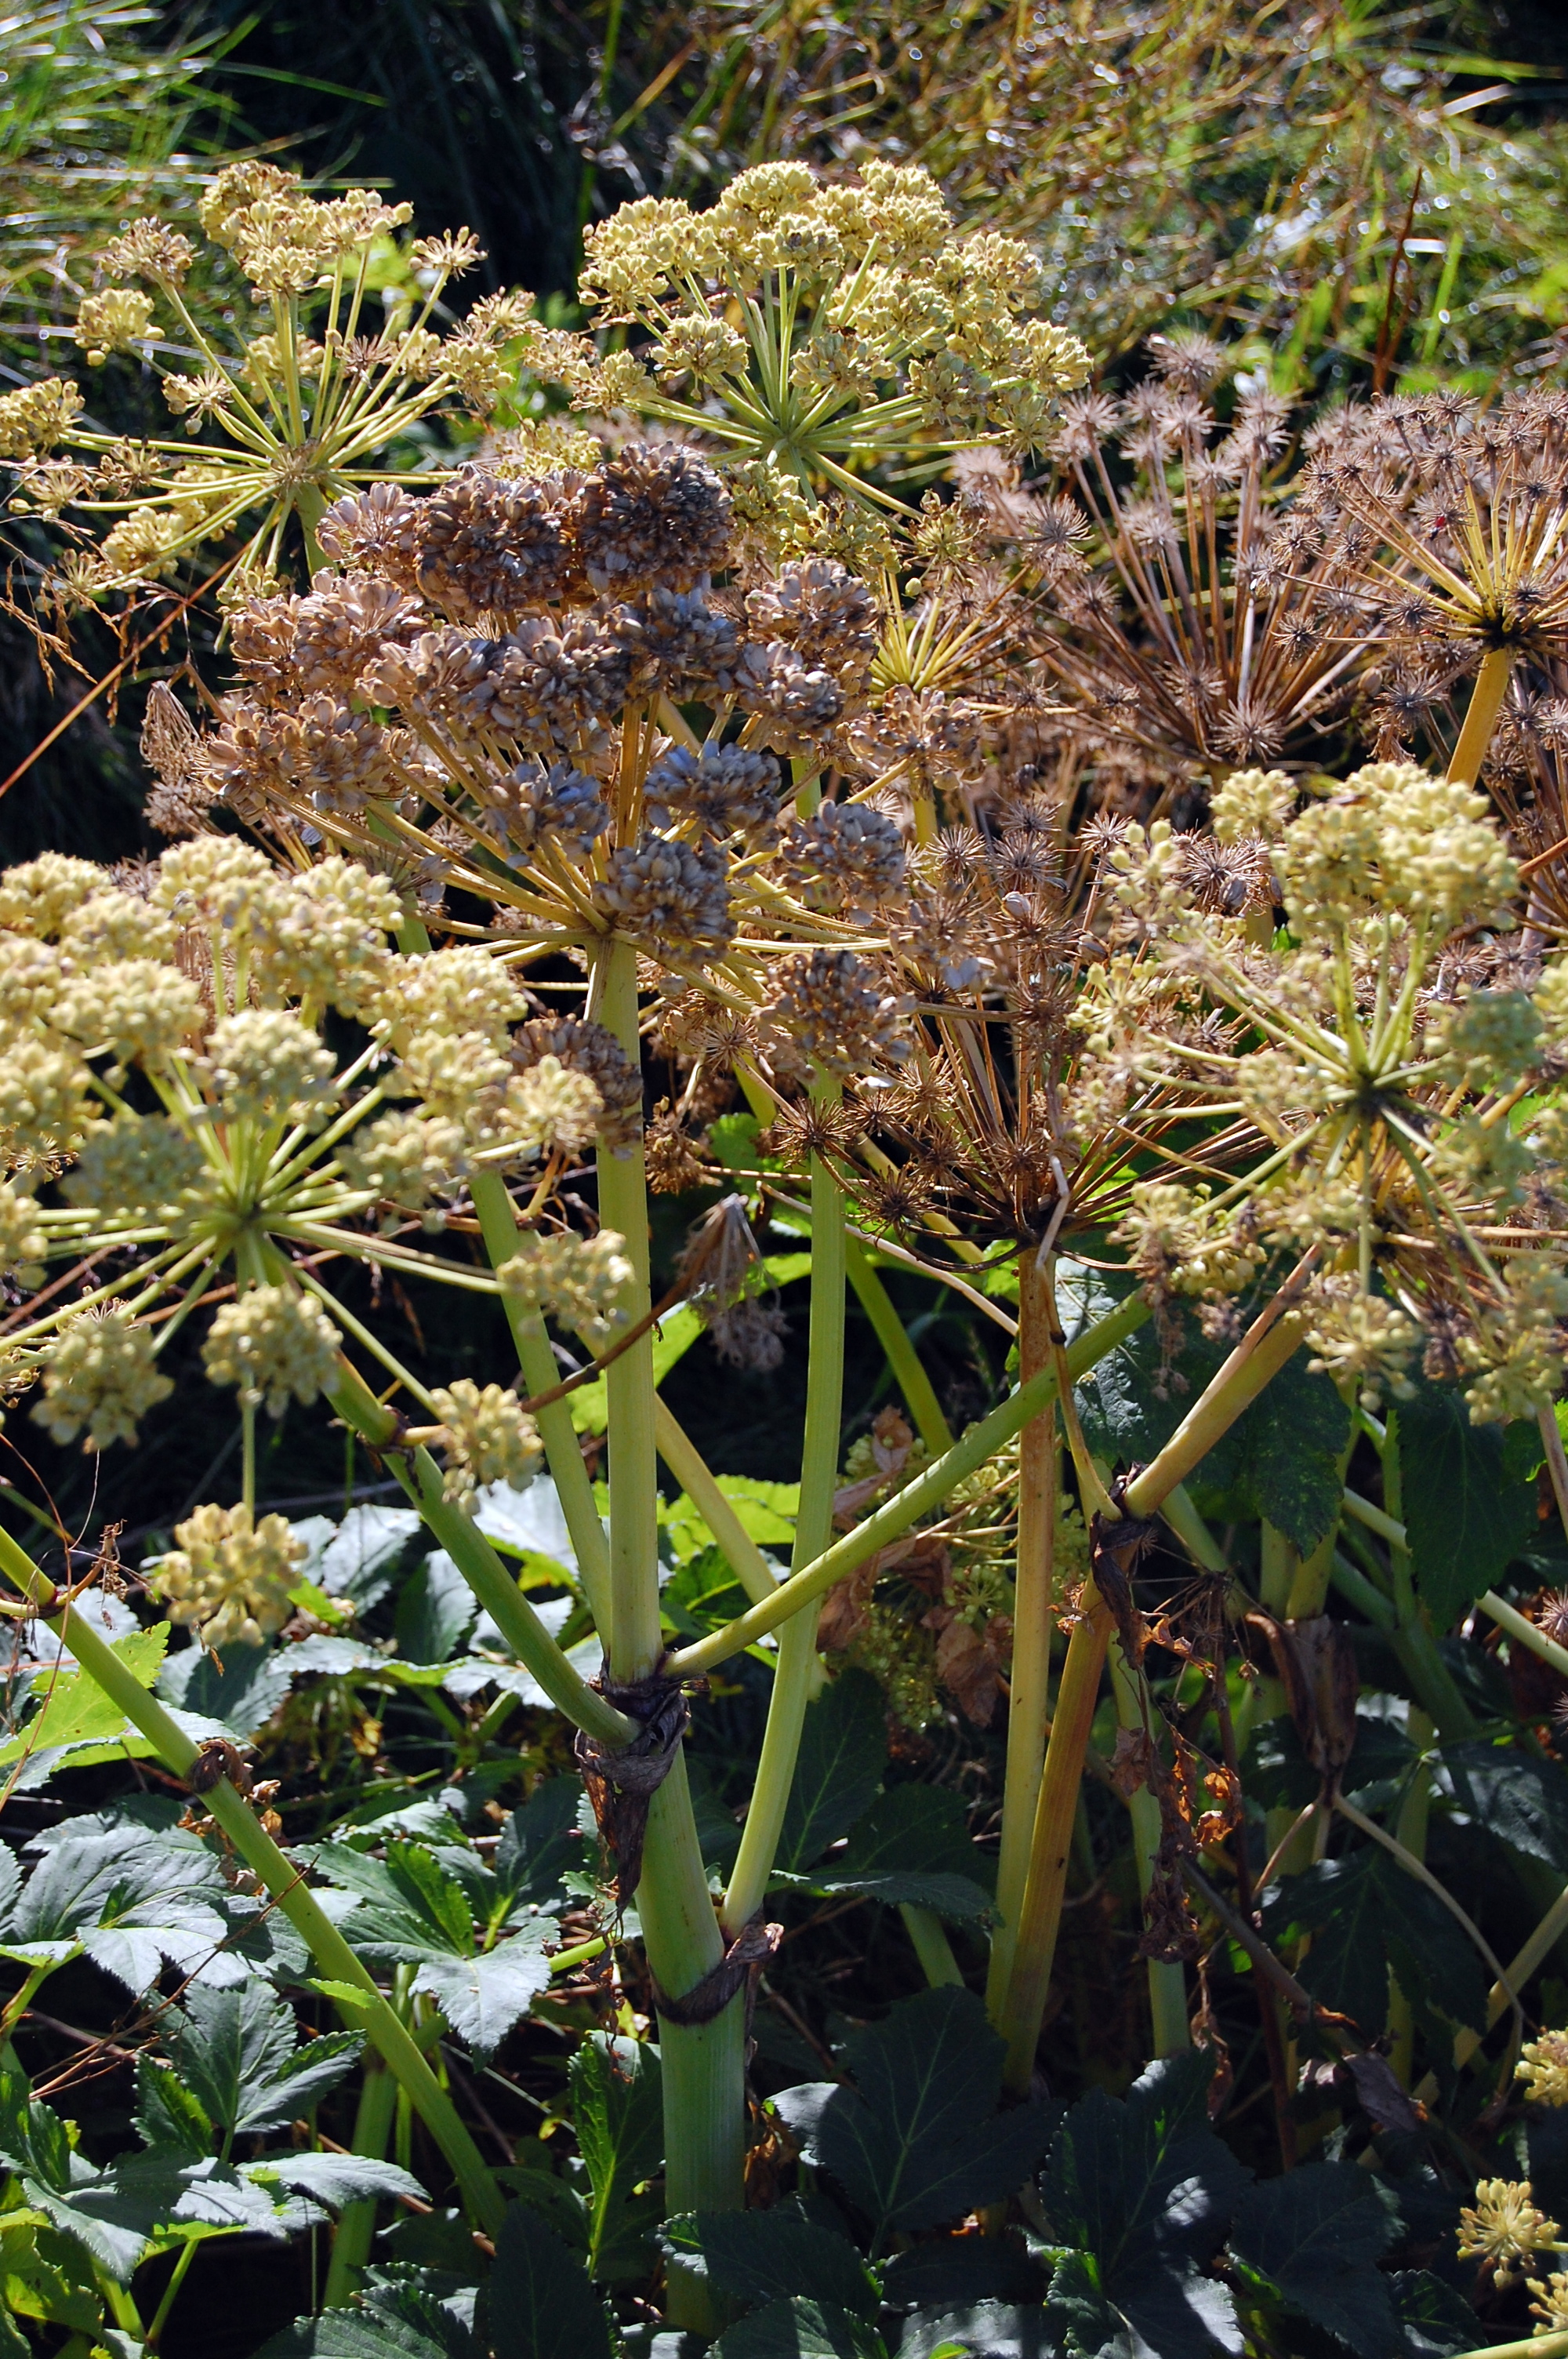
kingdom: Plantae
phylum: Tracheophyta
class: Magnoliopsida
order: Apiales
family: Apiaceae
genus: Angelica
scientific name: Angelica archangelica
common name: Garden angelica
